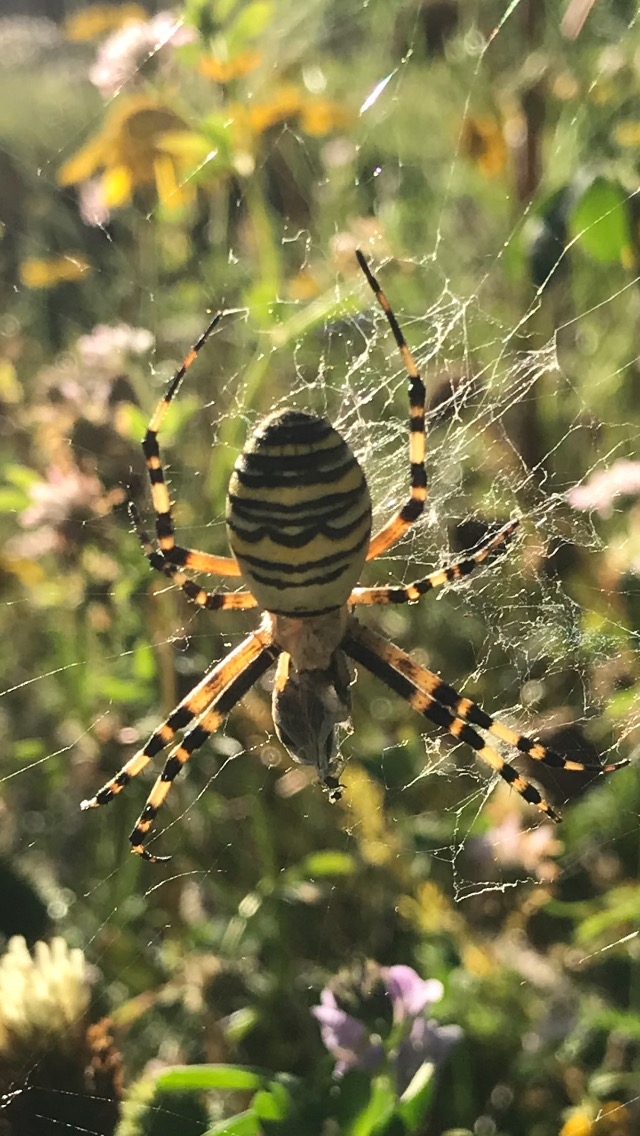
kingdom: Animalia
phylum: Arthropoda
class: Arachnida
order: Araneae
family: Araneidae
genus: Argiope
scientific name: Argiope bruennichi
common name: Hvepseedderkop
